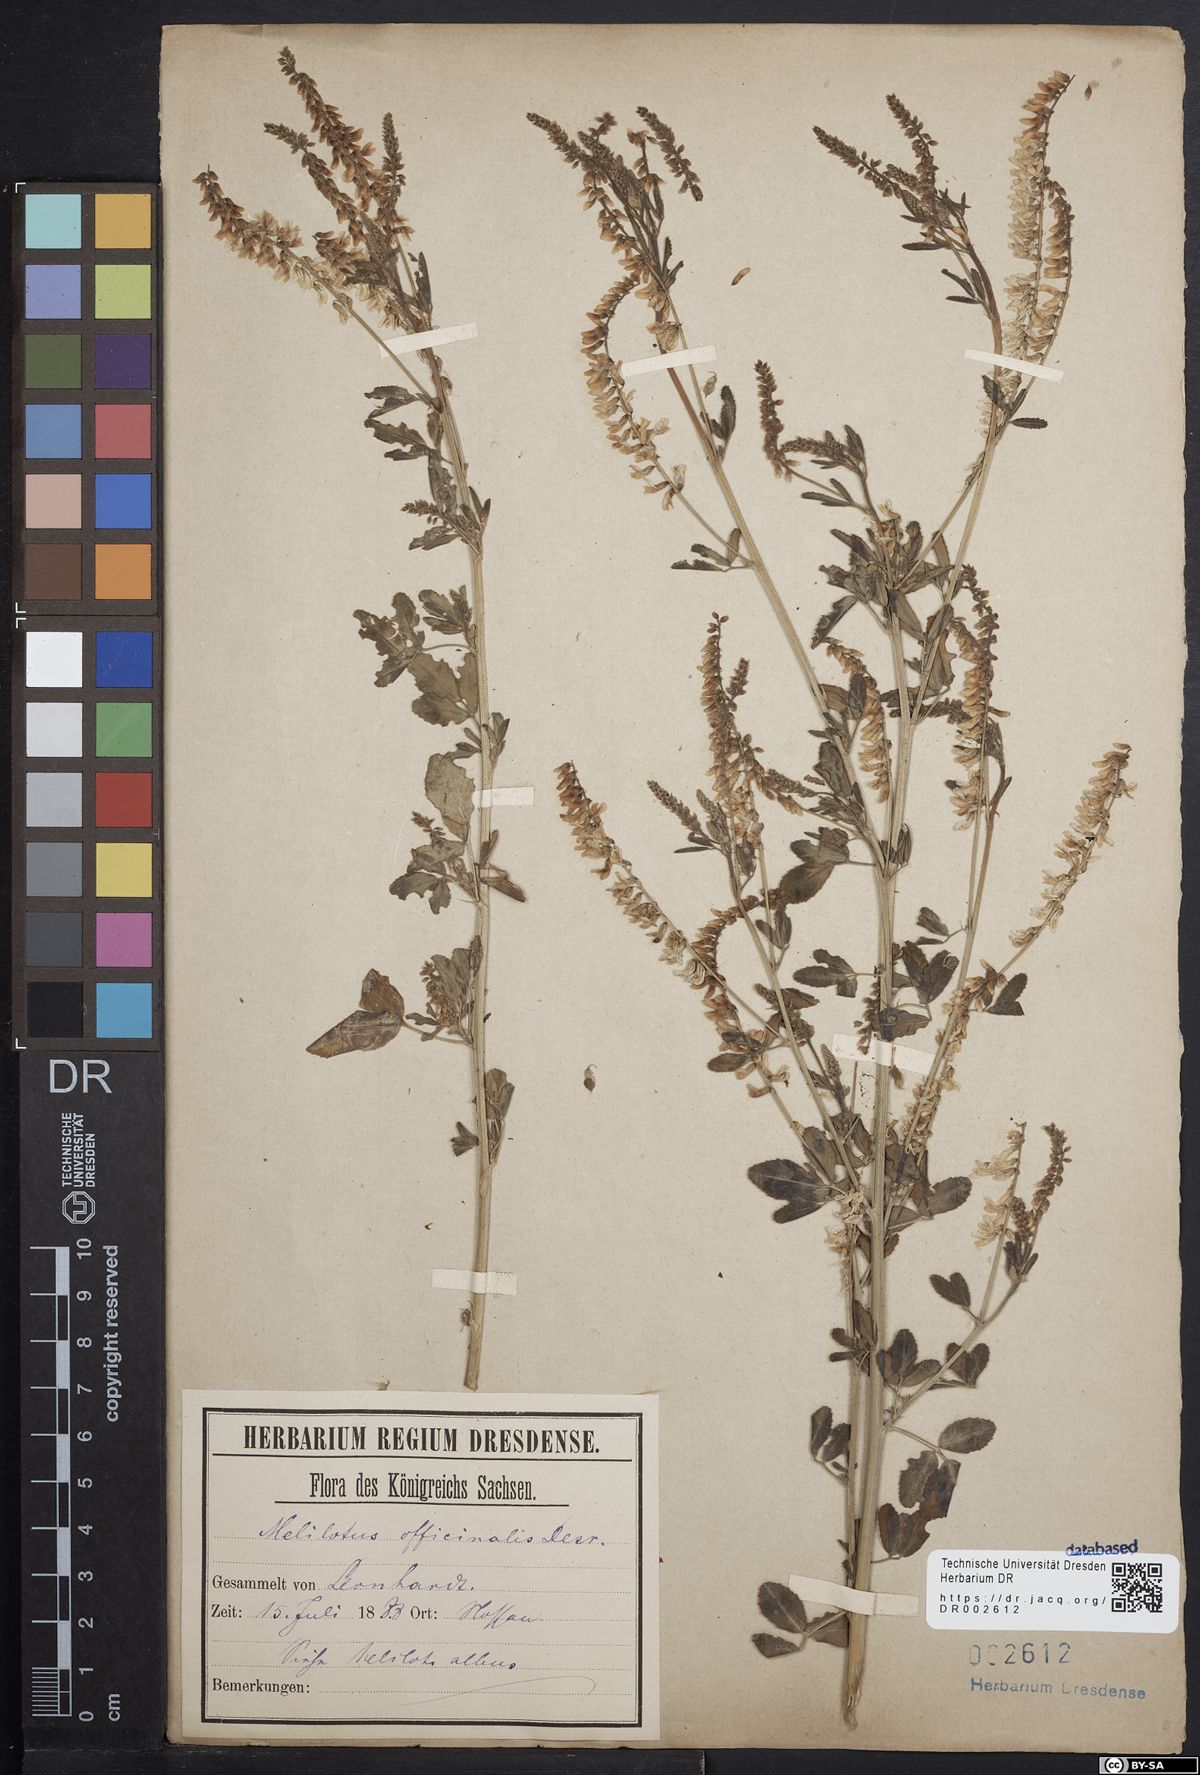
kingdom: Plantae
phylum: Tracheophyta
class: Magnoliopsida
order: Fabales
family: Fabaceae
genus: Melilotus
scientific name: Melilotus officinalis
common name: Sweetclover
